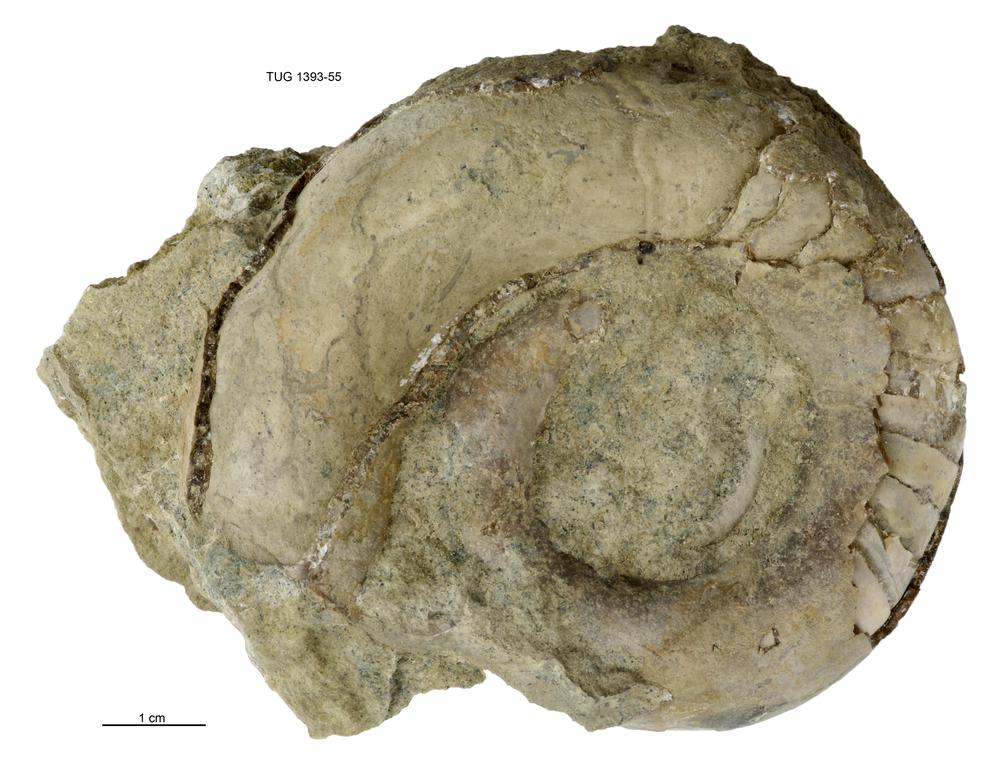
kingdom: Animalia
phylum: Mollusca
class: Cephalopoda
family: Tarphyceratidae
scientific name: Tarphyceratidae
